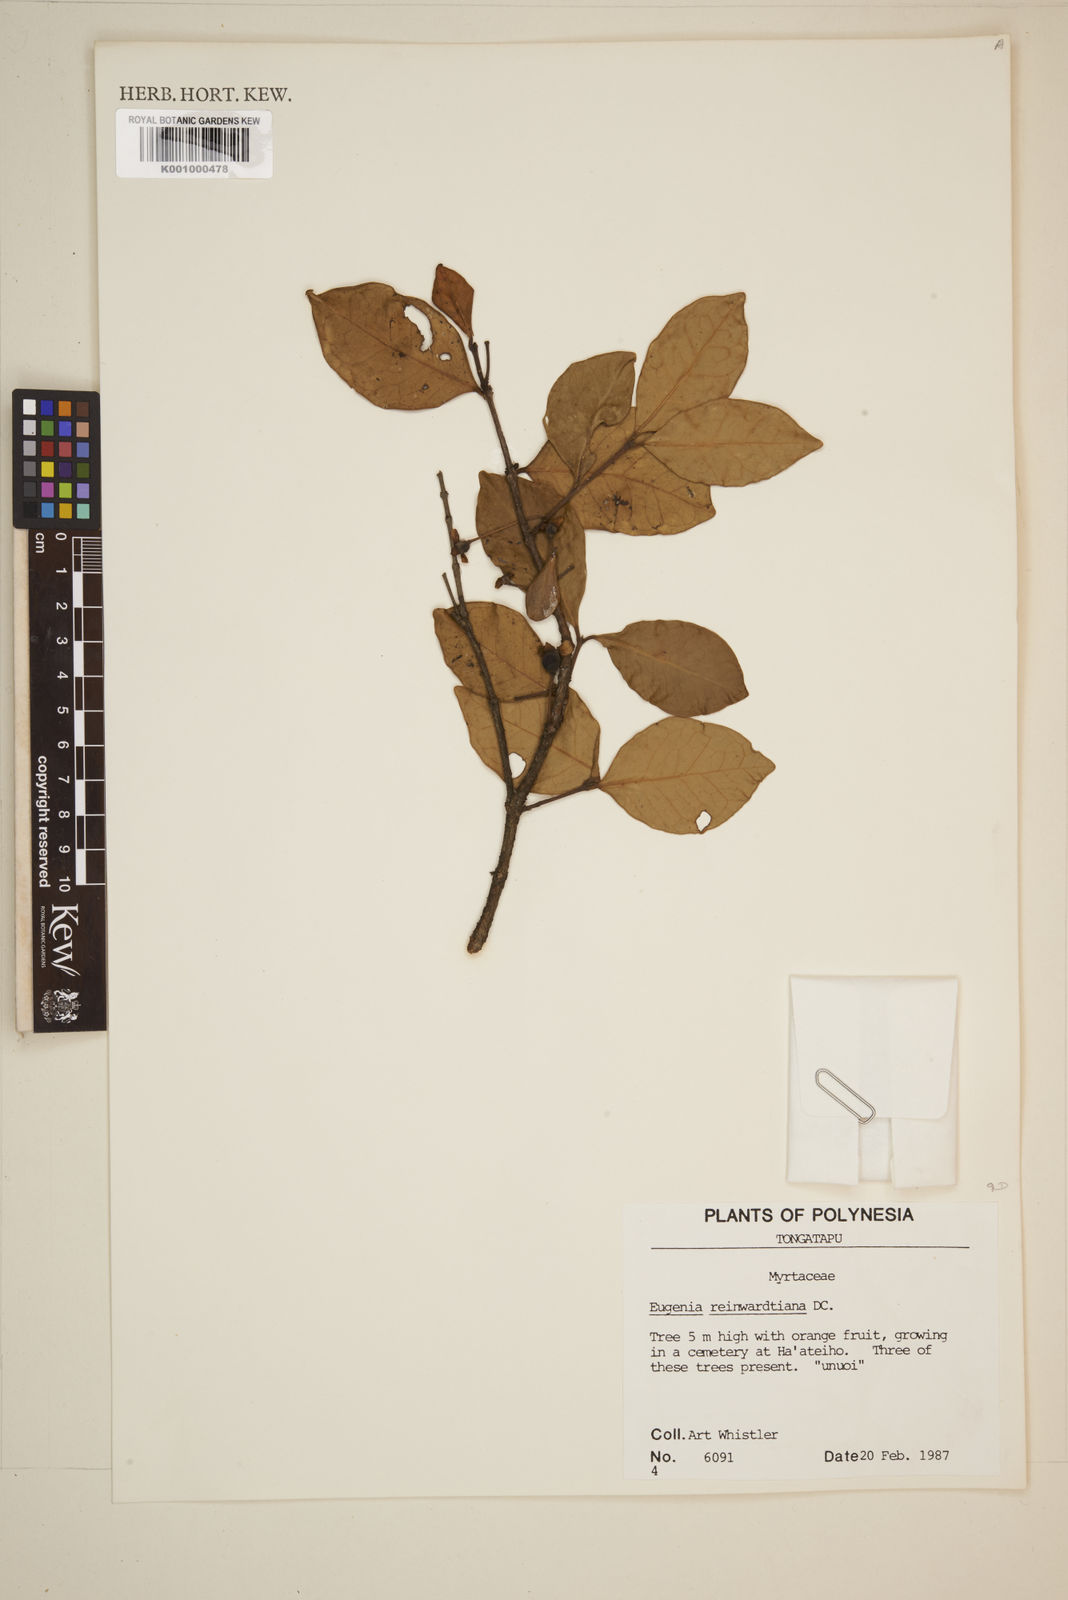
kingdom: Plantae
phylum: Tracheophyta
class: Magnoliopsida
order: Myrtales
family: Myrtaceae
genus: Eugenia
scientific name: Eugenia reinwardtiana
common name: Cedar bay-cherry
